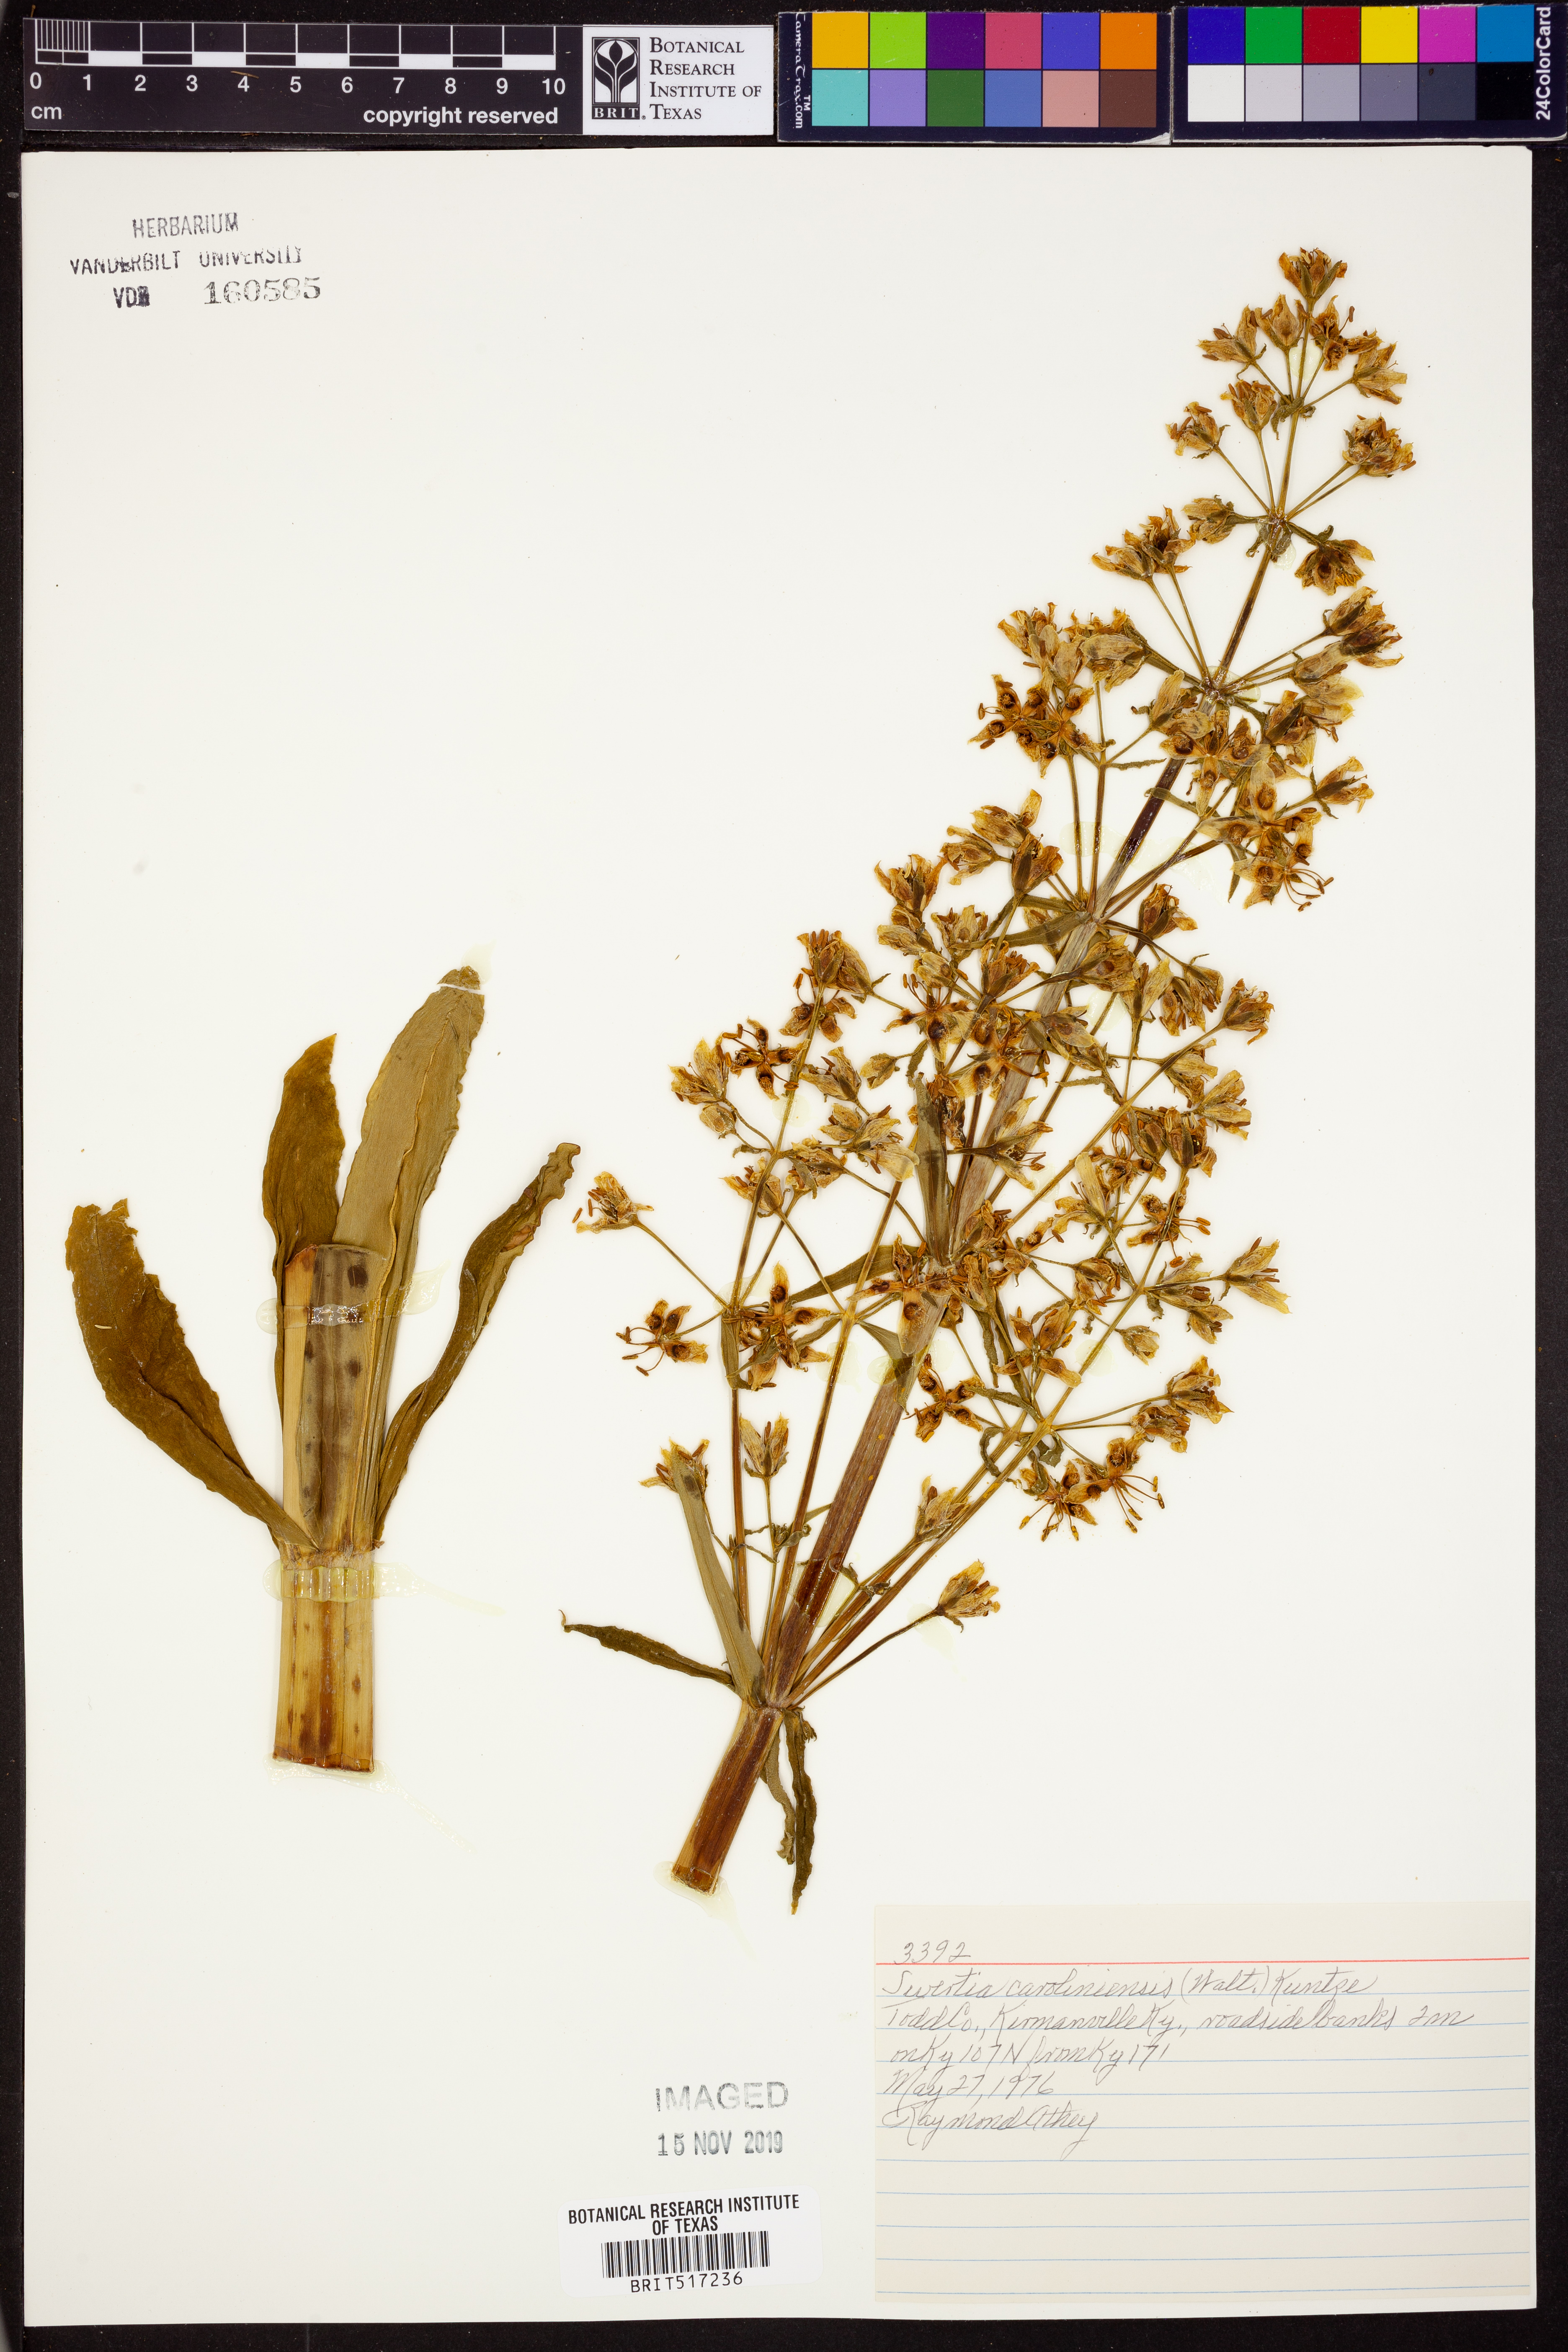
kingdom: Plantae
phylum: Tracheophyta
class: Magnoliopsida
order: Gentianales
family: Gentianaceae
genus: Frasera
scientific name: Frasera carolinensis
